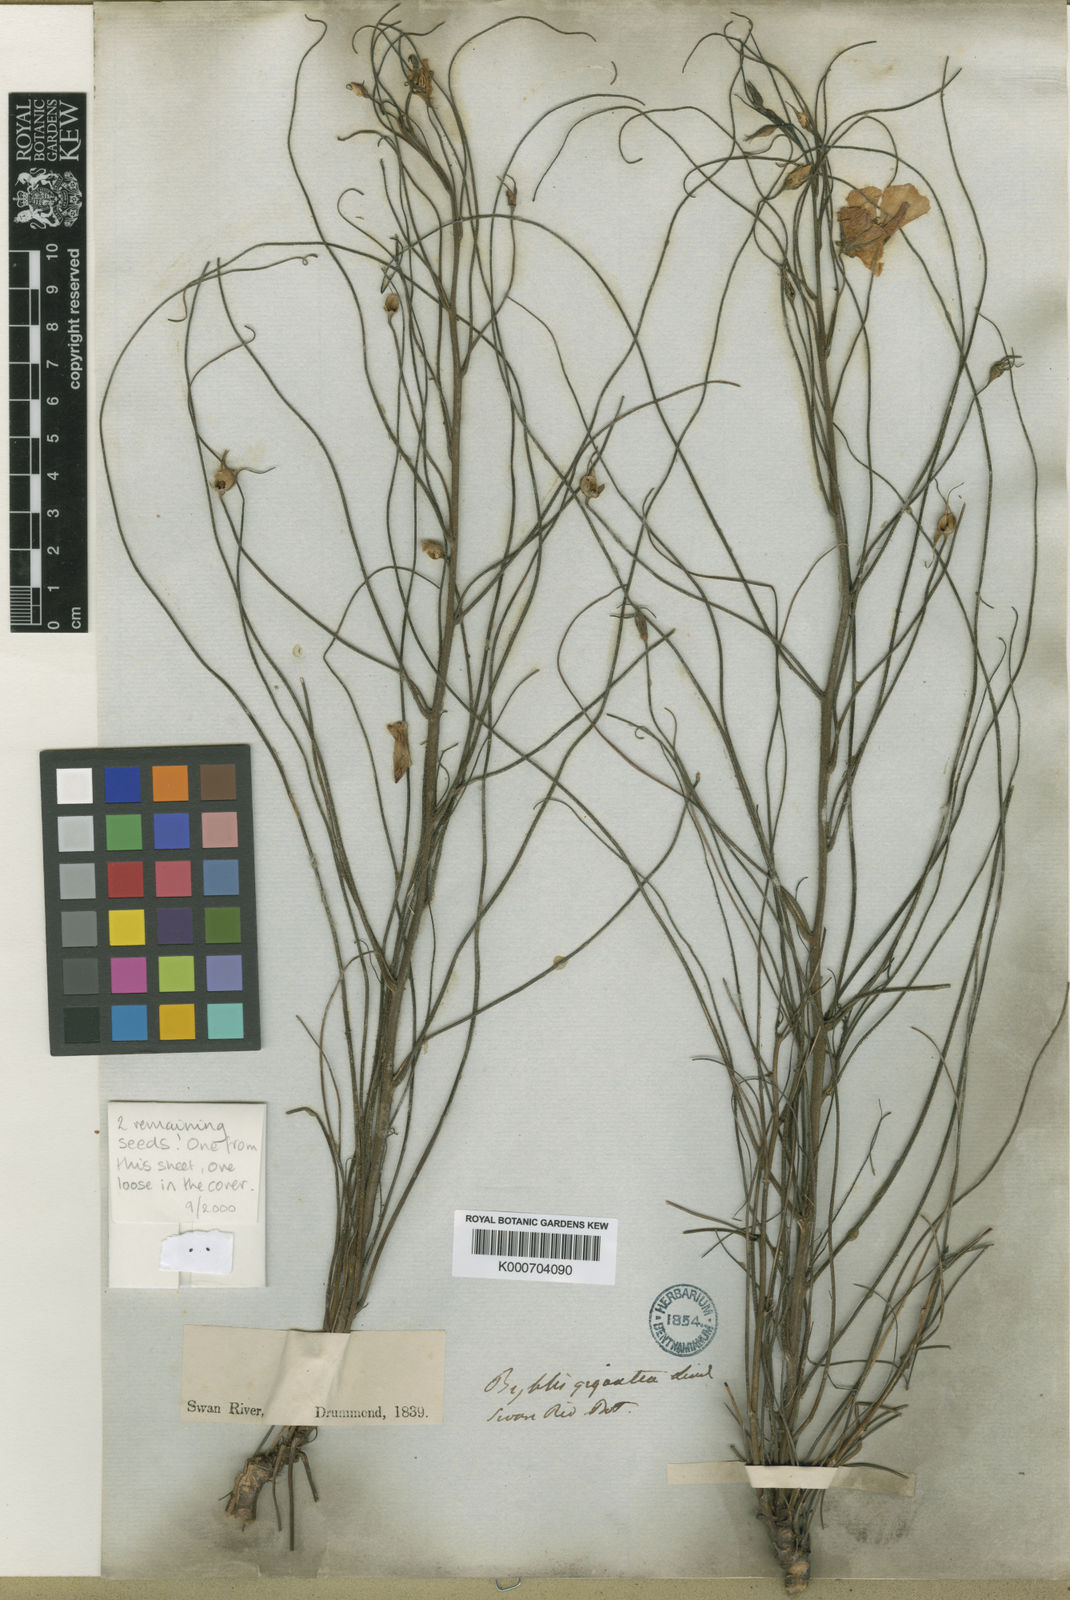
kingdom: Plantae
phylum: Tracheophyta
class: Magnoliopsida
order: Lamiales
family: Byblidaceae
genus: Byblis
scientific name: Byblis gigantea
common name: Rainbowplant
